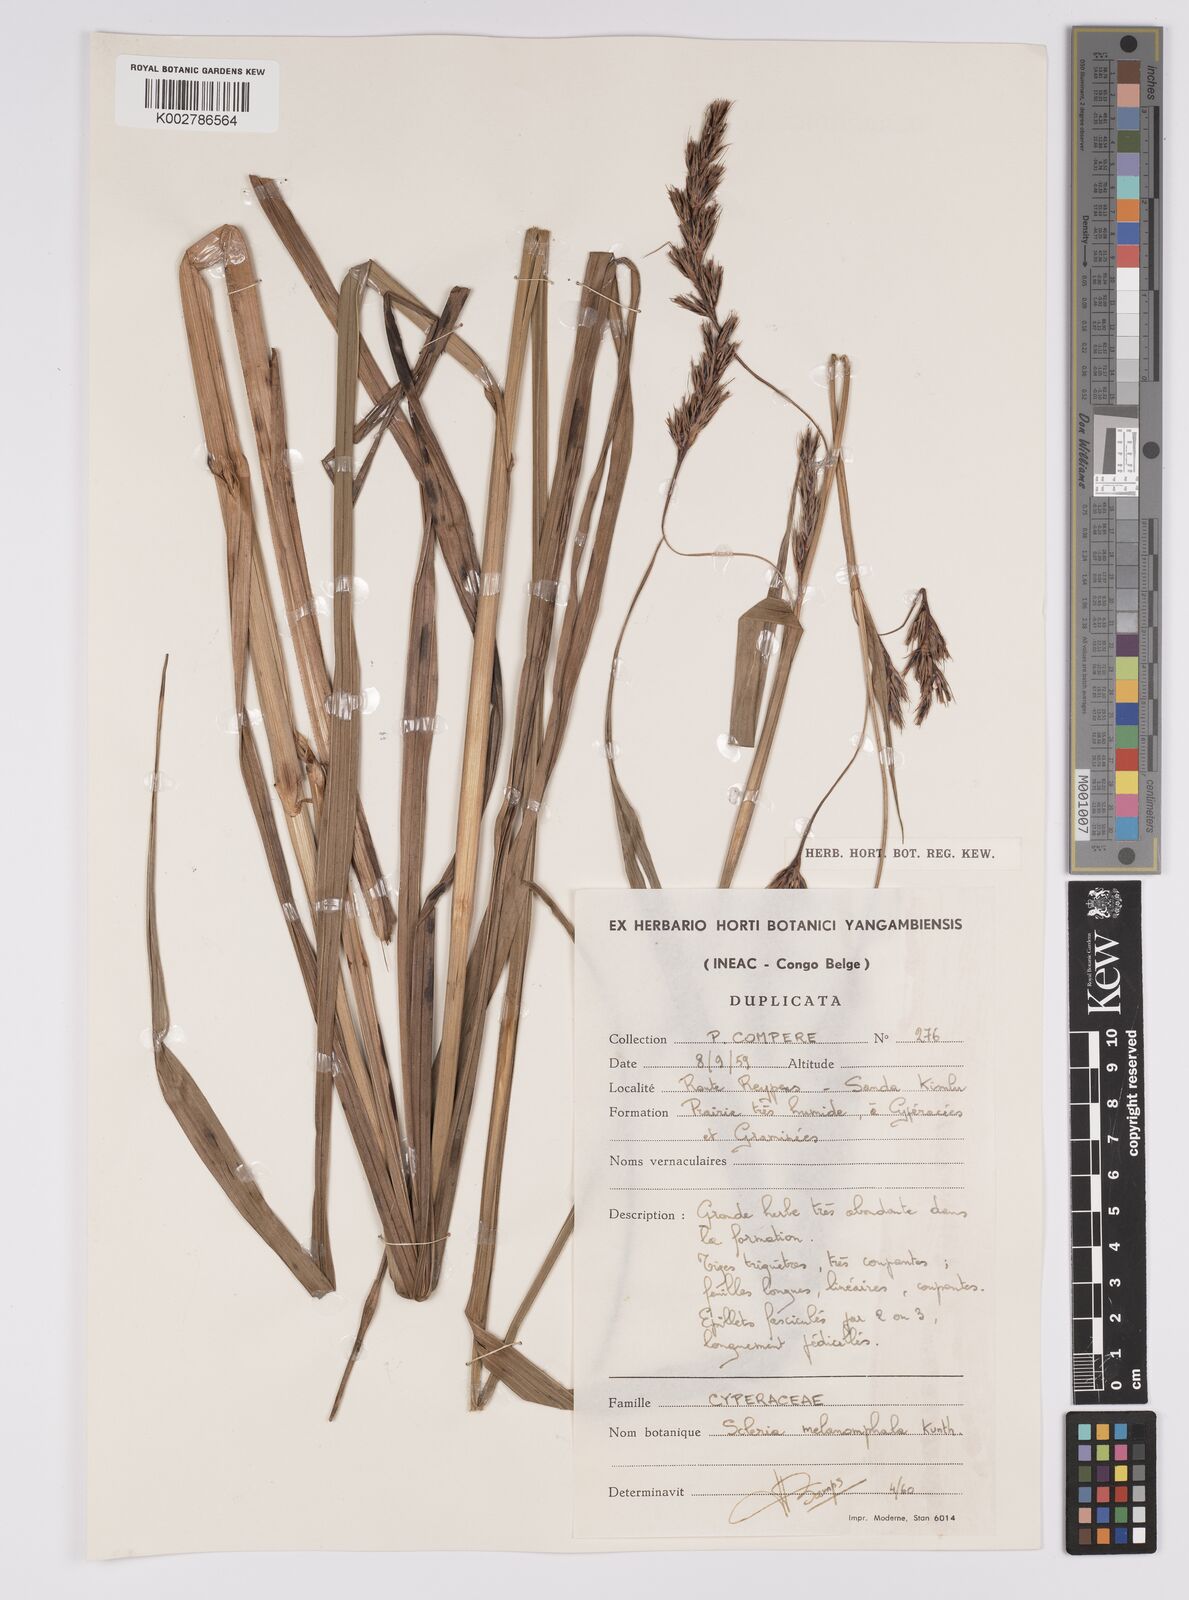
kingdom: Plantae
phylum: Tracheophyta
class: Liliopsida
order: Poales
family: Cyperaceae
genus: Scleria
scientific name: Scleria melanomphala
